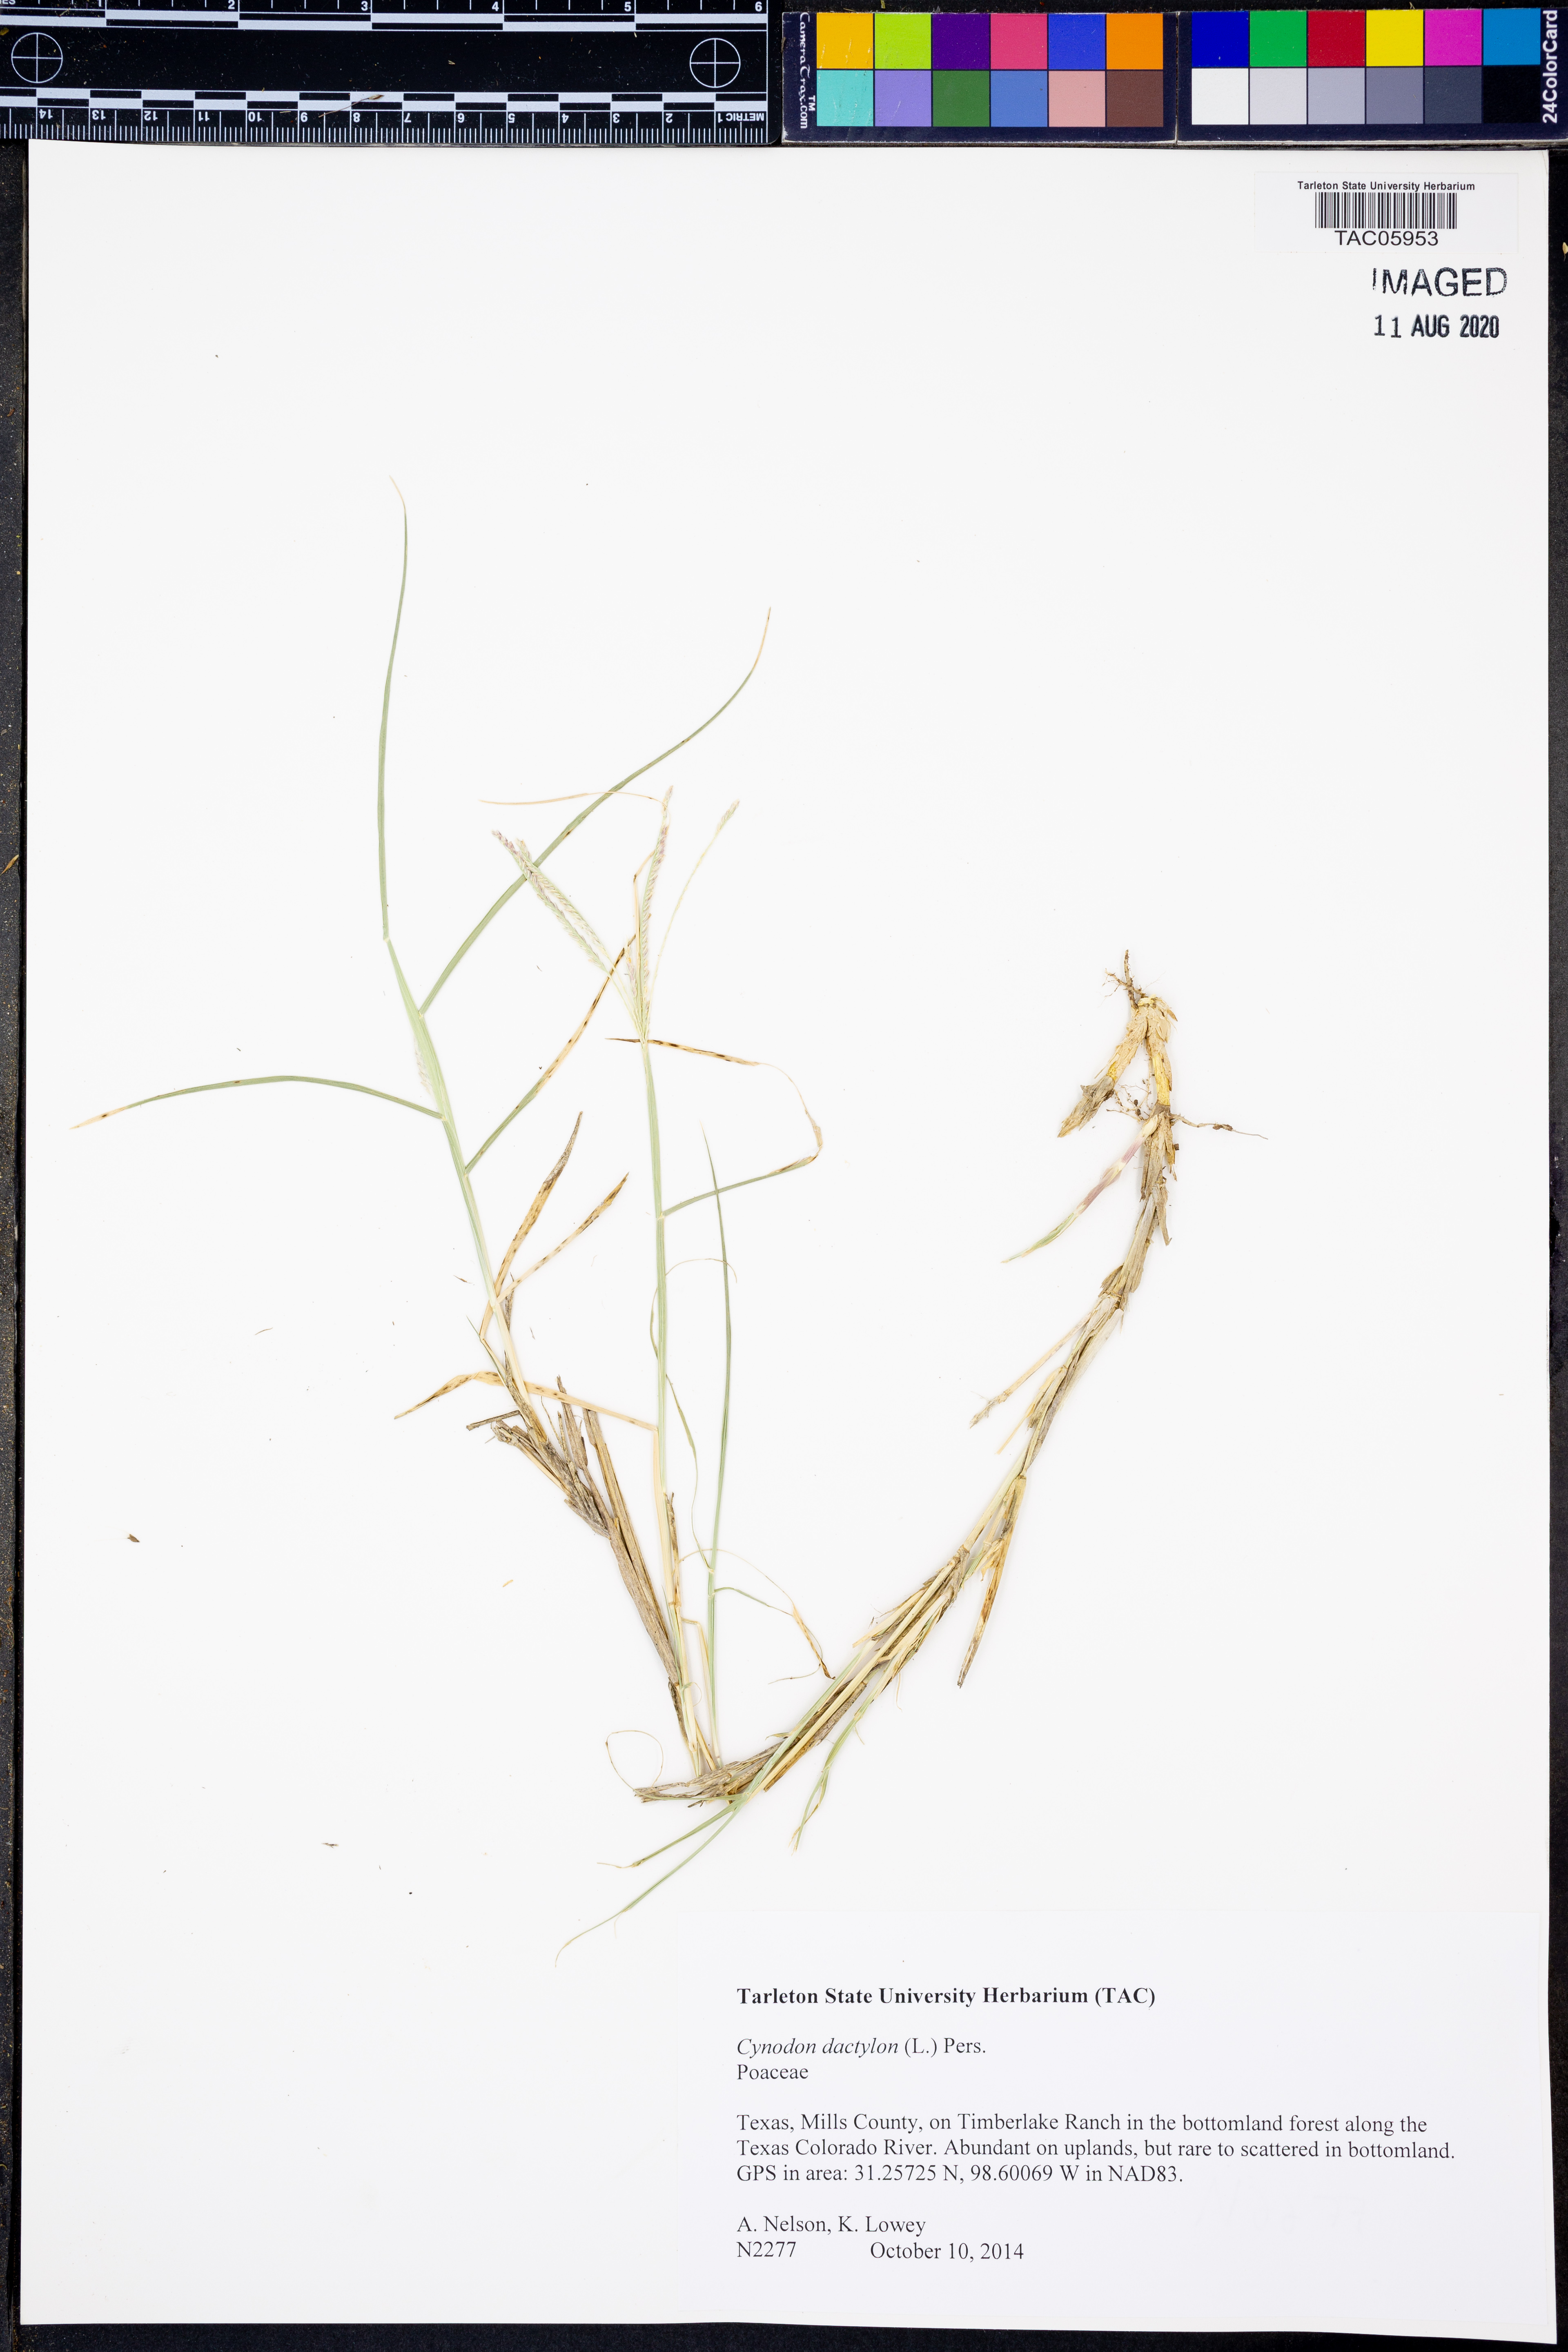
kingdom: Plantae
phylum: Tracheophyta
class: Liliopsida
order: Poales
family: Poaceae
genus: Cynodon
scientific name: Cynodon dactylon
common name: Bermuda grass
